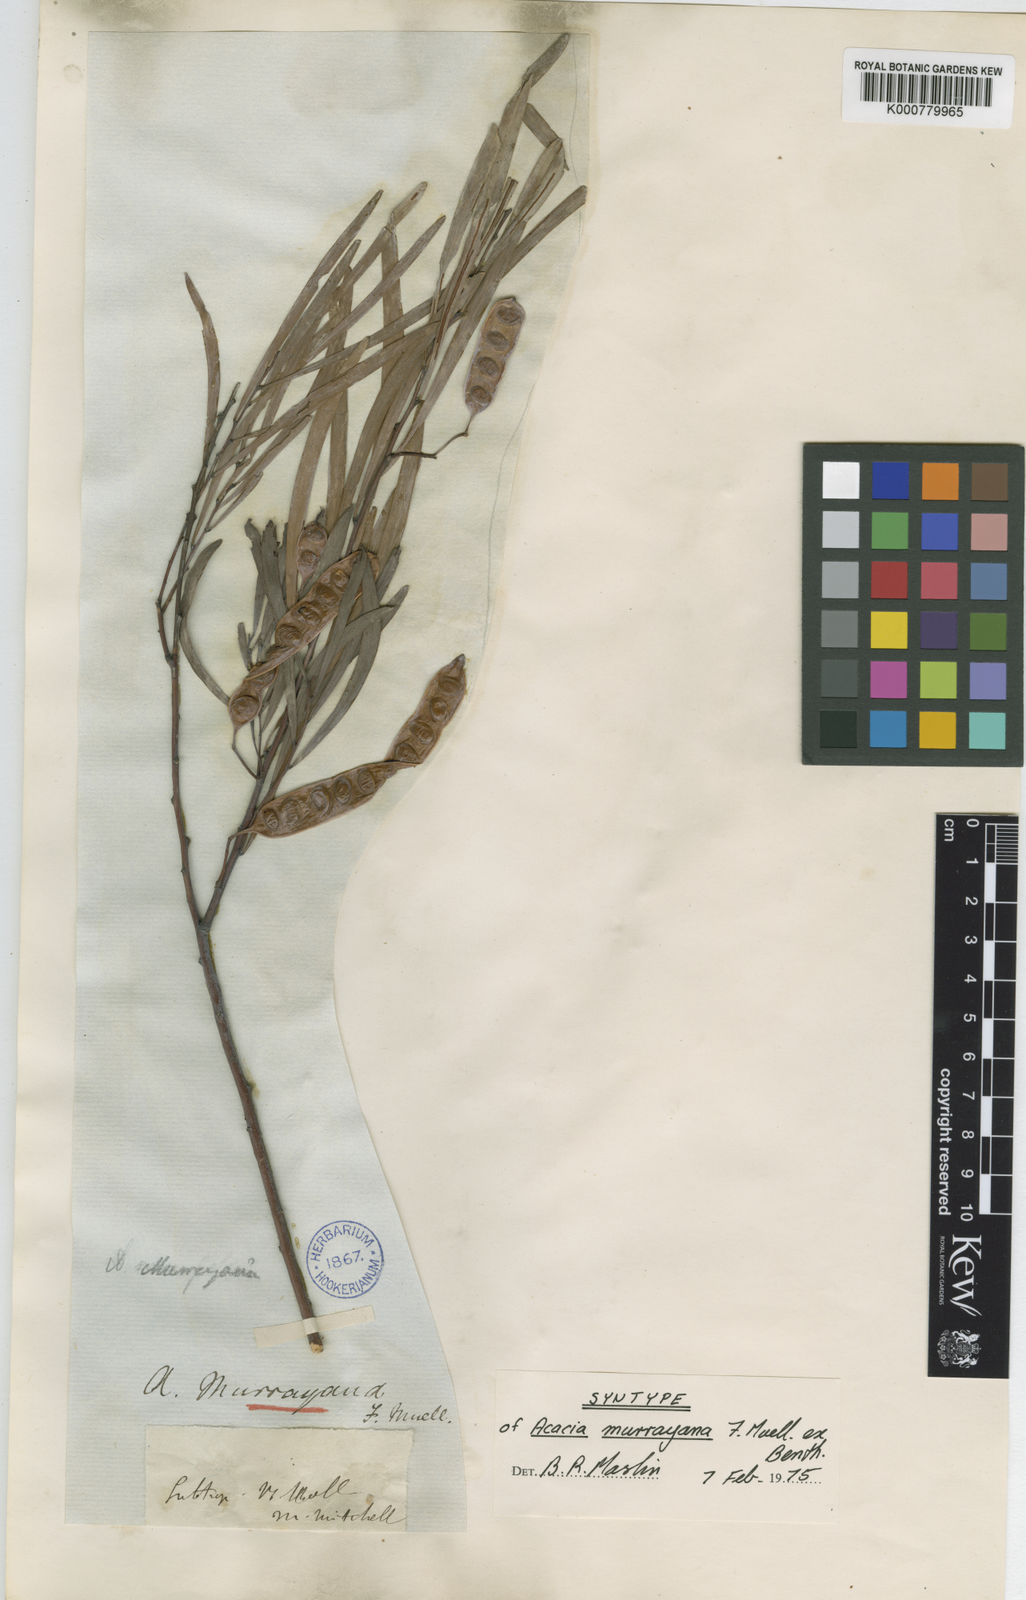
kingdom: Plantae
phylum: Tracheophyta
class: Magnoliopsida
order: Fabales
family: Fabaceae
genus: Acacia
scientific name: Acacia murrayana
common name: Murray's wattle
